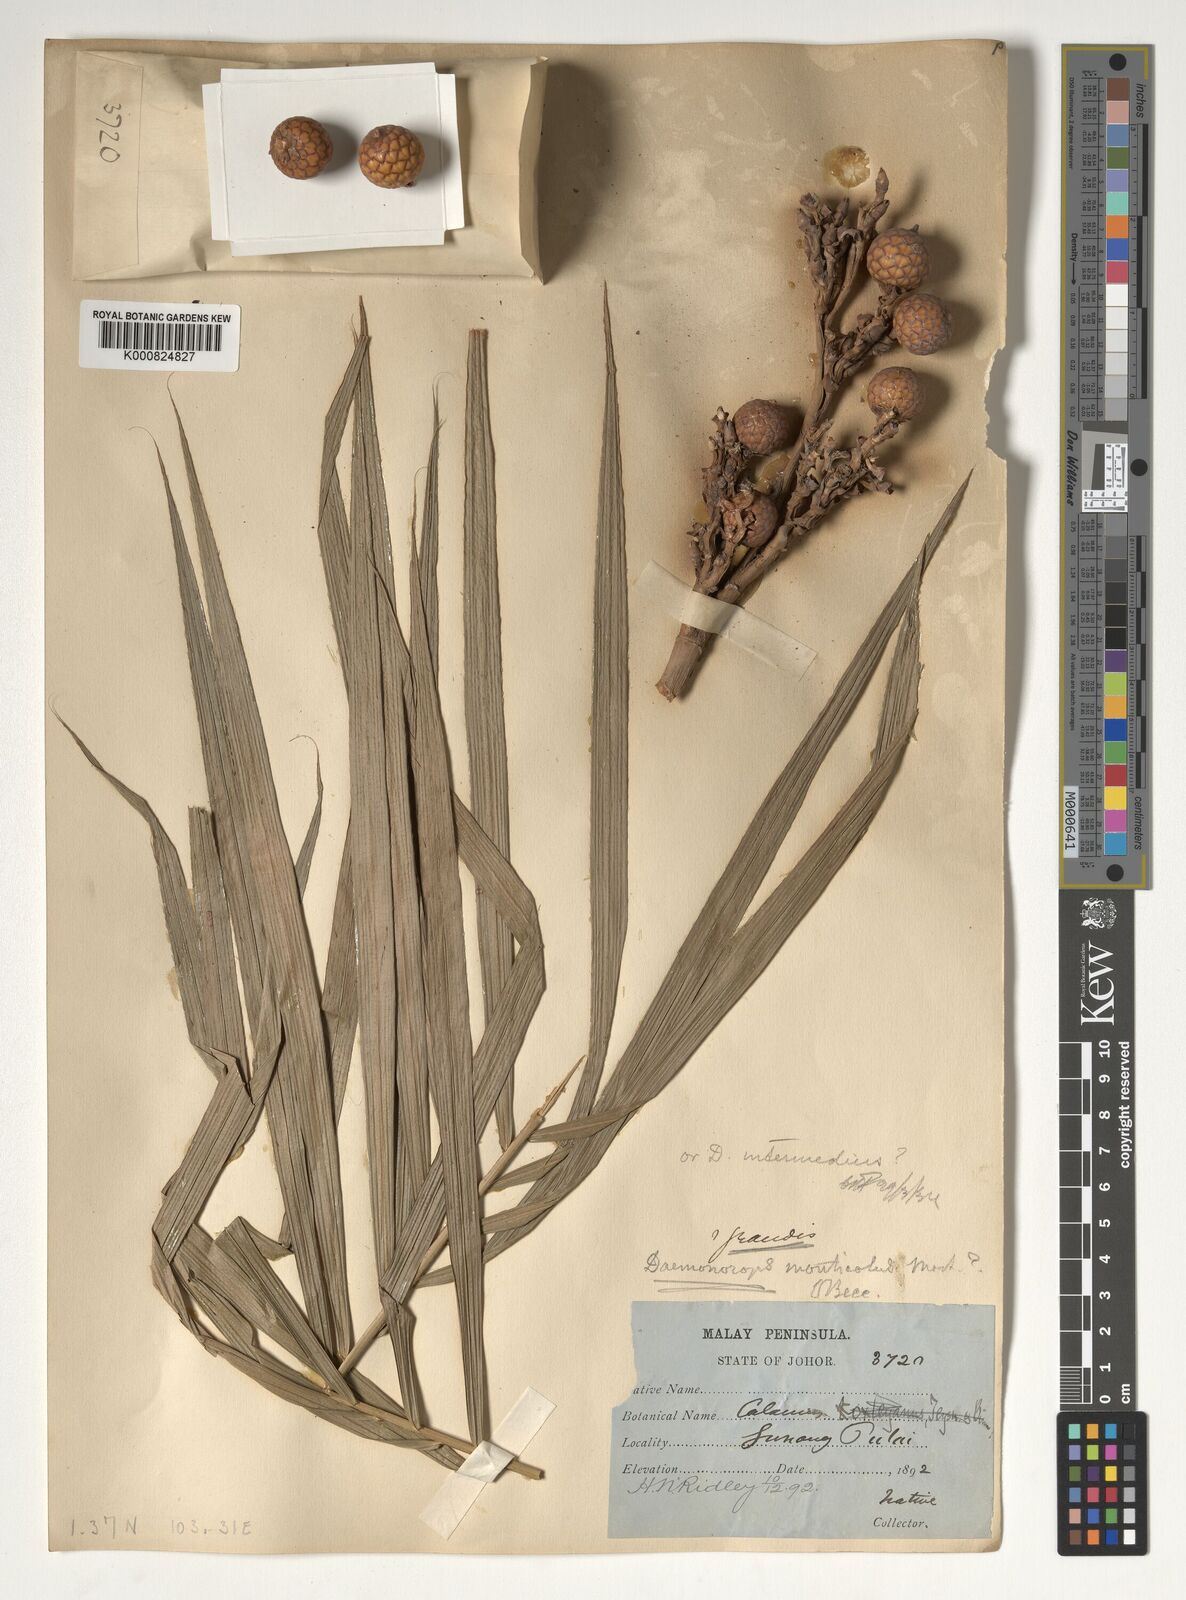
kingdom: Plantae
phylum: Tracheophyta
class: Liliopsida
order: Arecales
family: Arecaceae
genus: Calamus
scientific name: Calamus melanochaetes
